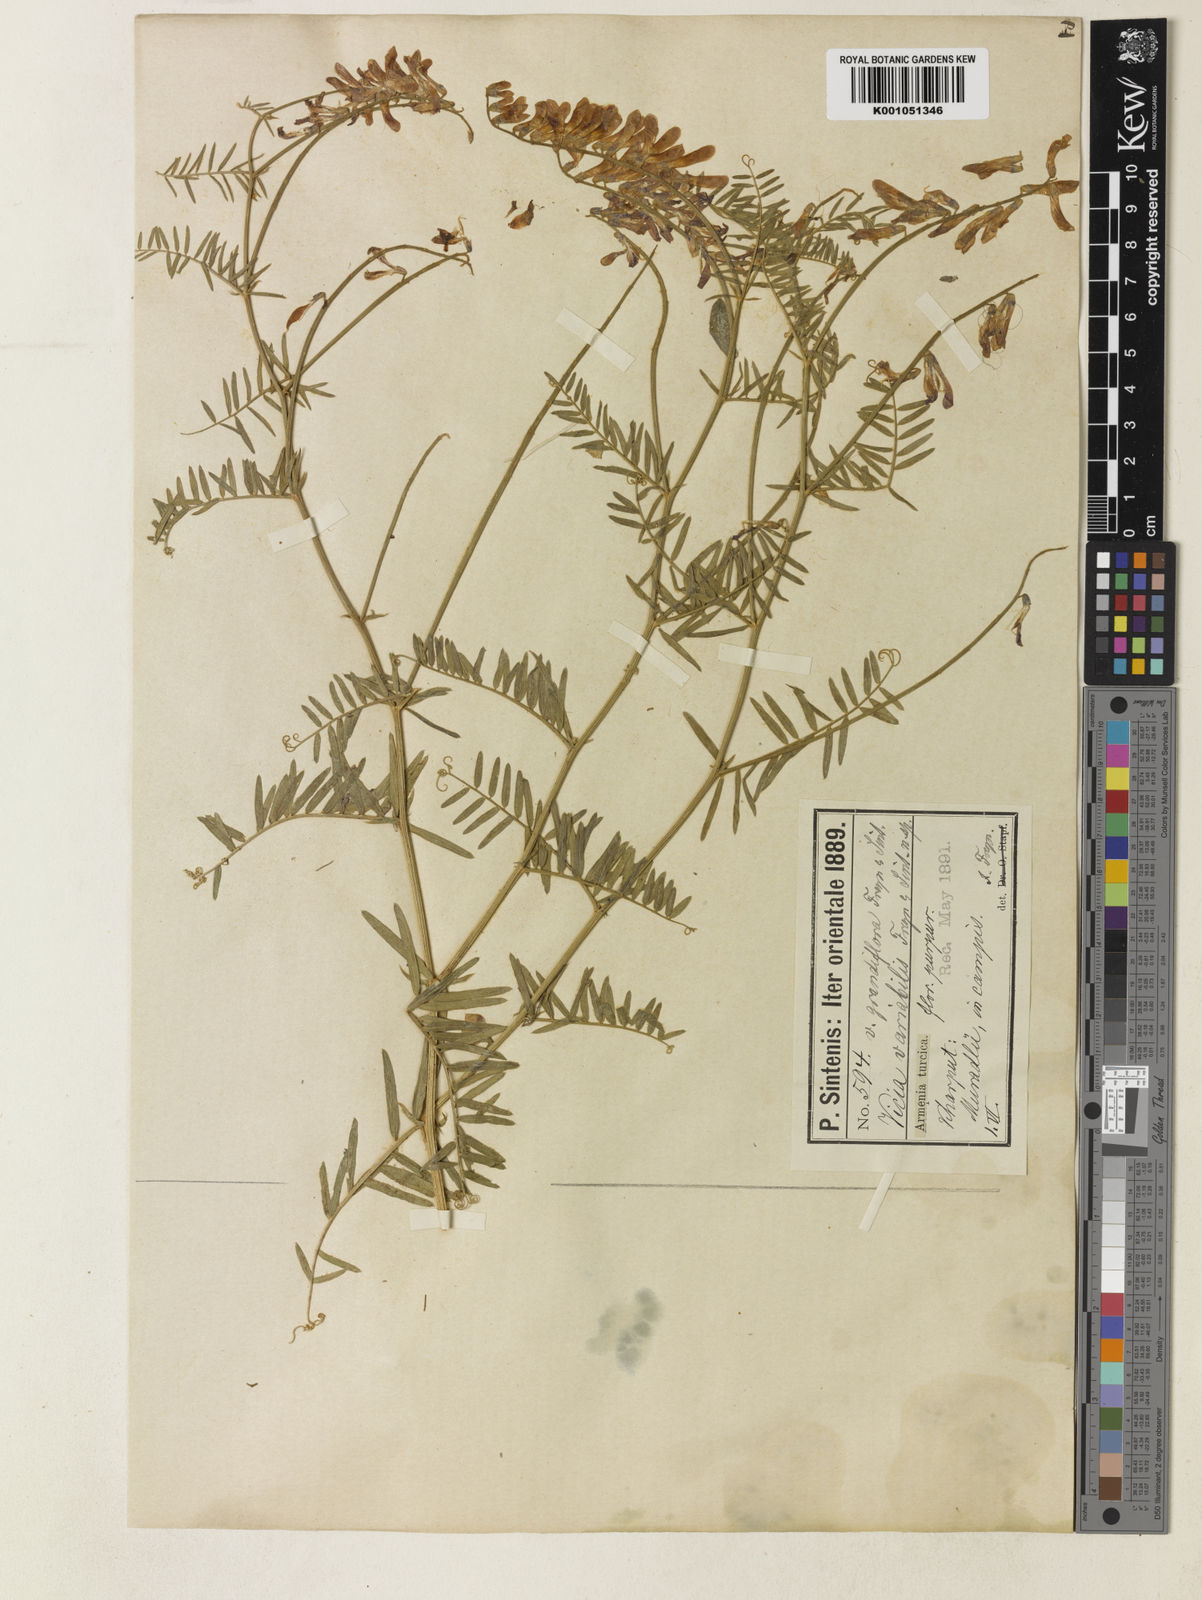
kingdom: Plantae
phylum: Tracheophyta
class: Magnoliopsida
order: Fabales
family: Fabaceae
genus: Vicia
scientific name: Vicia tenuifolia
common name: Fine-leaved vetch
